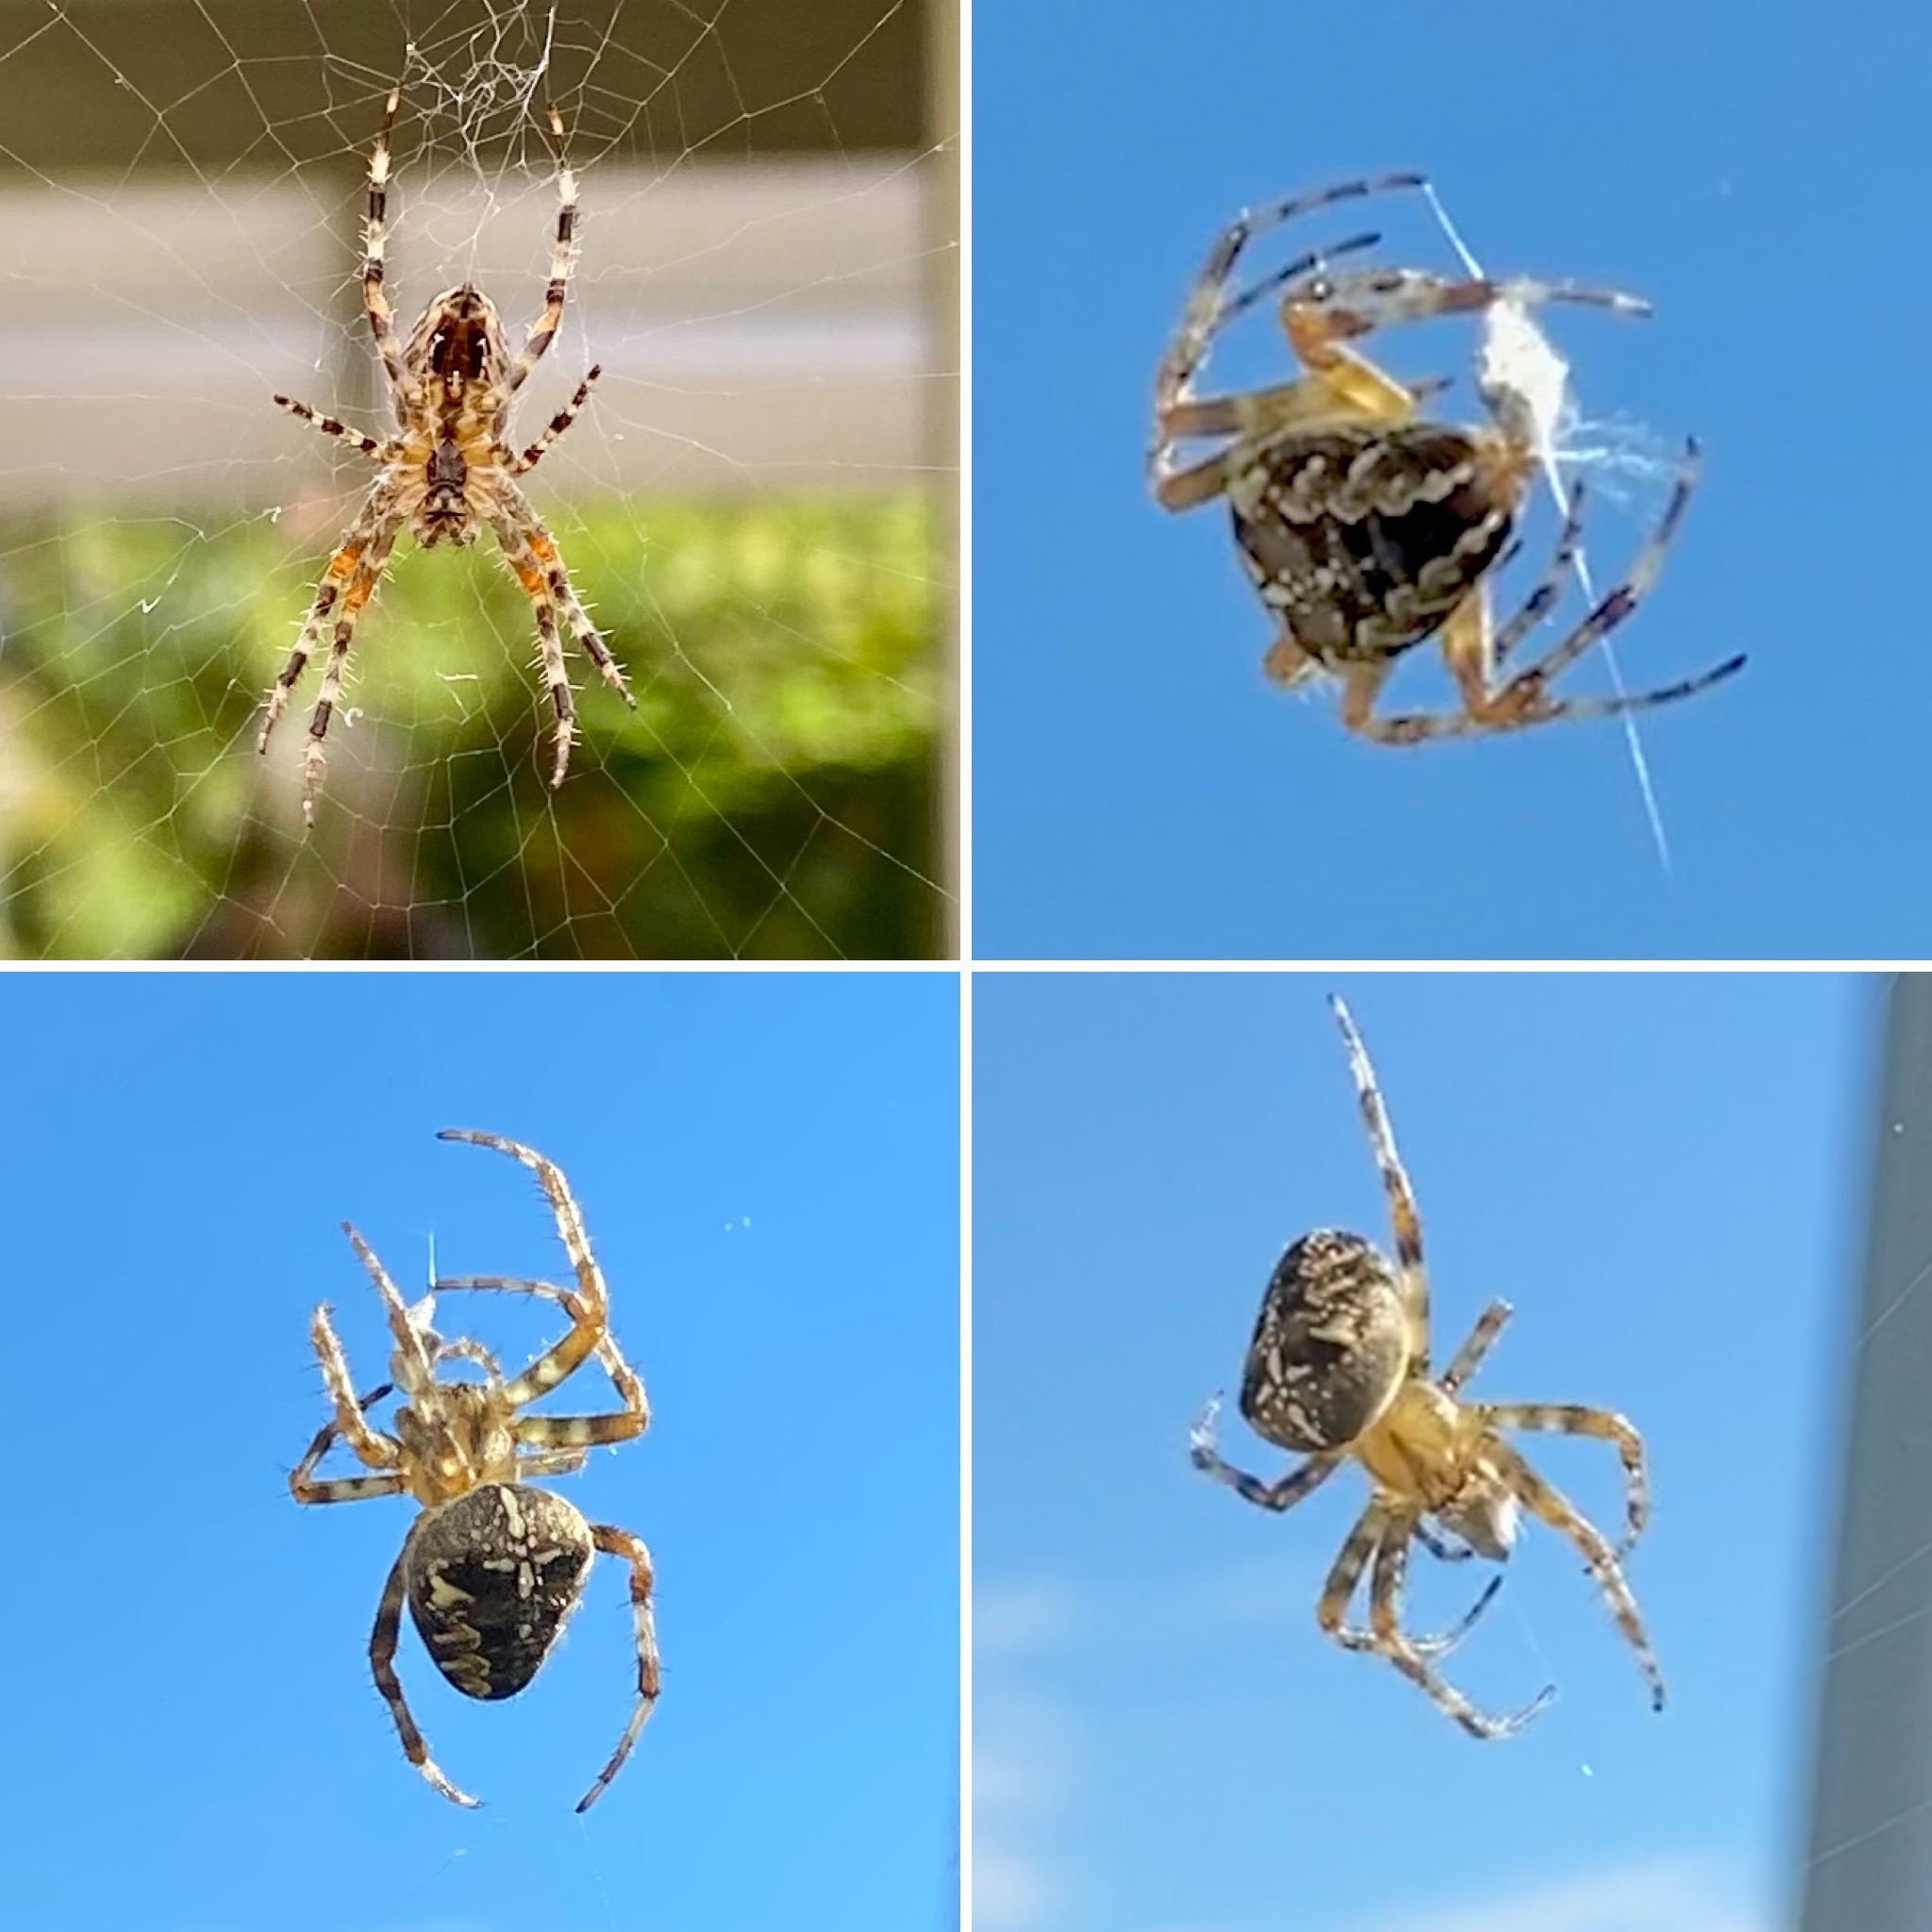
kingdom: Animalia
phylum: Arthropoda
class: Arachnida
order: Araneae
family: Araneidae
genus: Araneus
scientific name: Araneus diadematus
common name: Korsedderkop
